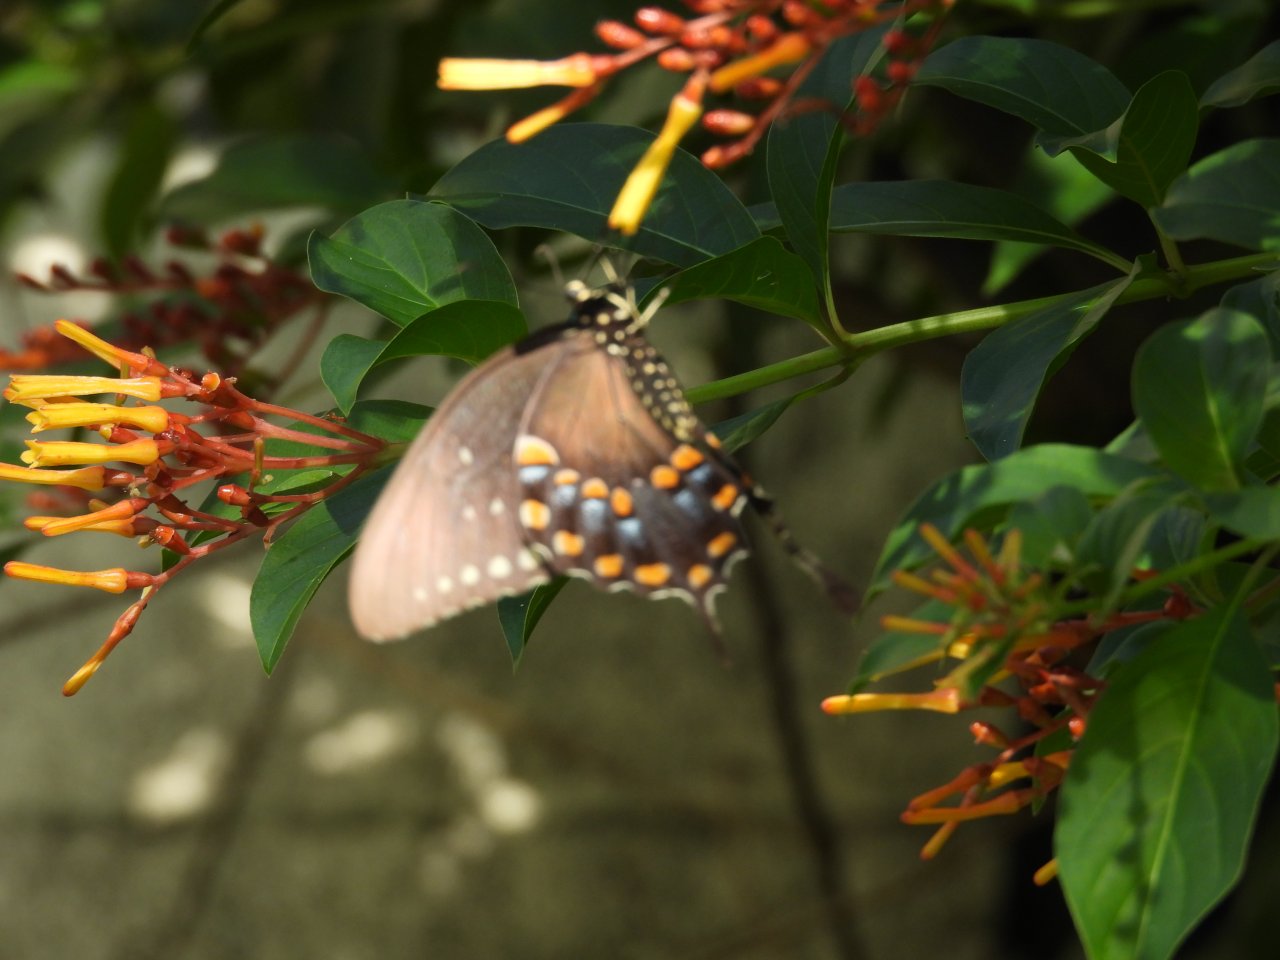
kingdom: Animalia
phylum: Arthropoda
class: Insecta
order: Lepidoptera
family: Papilionidae
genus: Pterourus
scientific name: Pterourus troilus
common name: Spicebush Swallowtail
